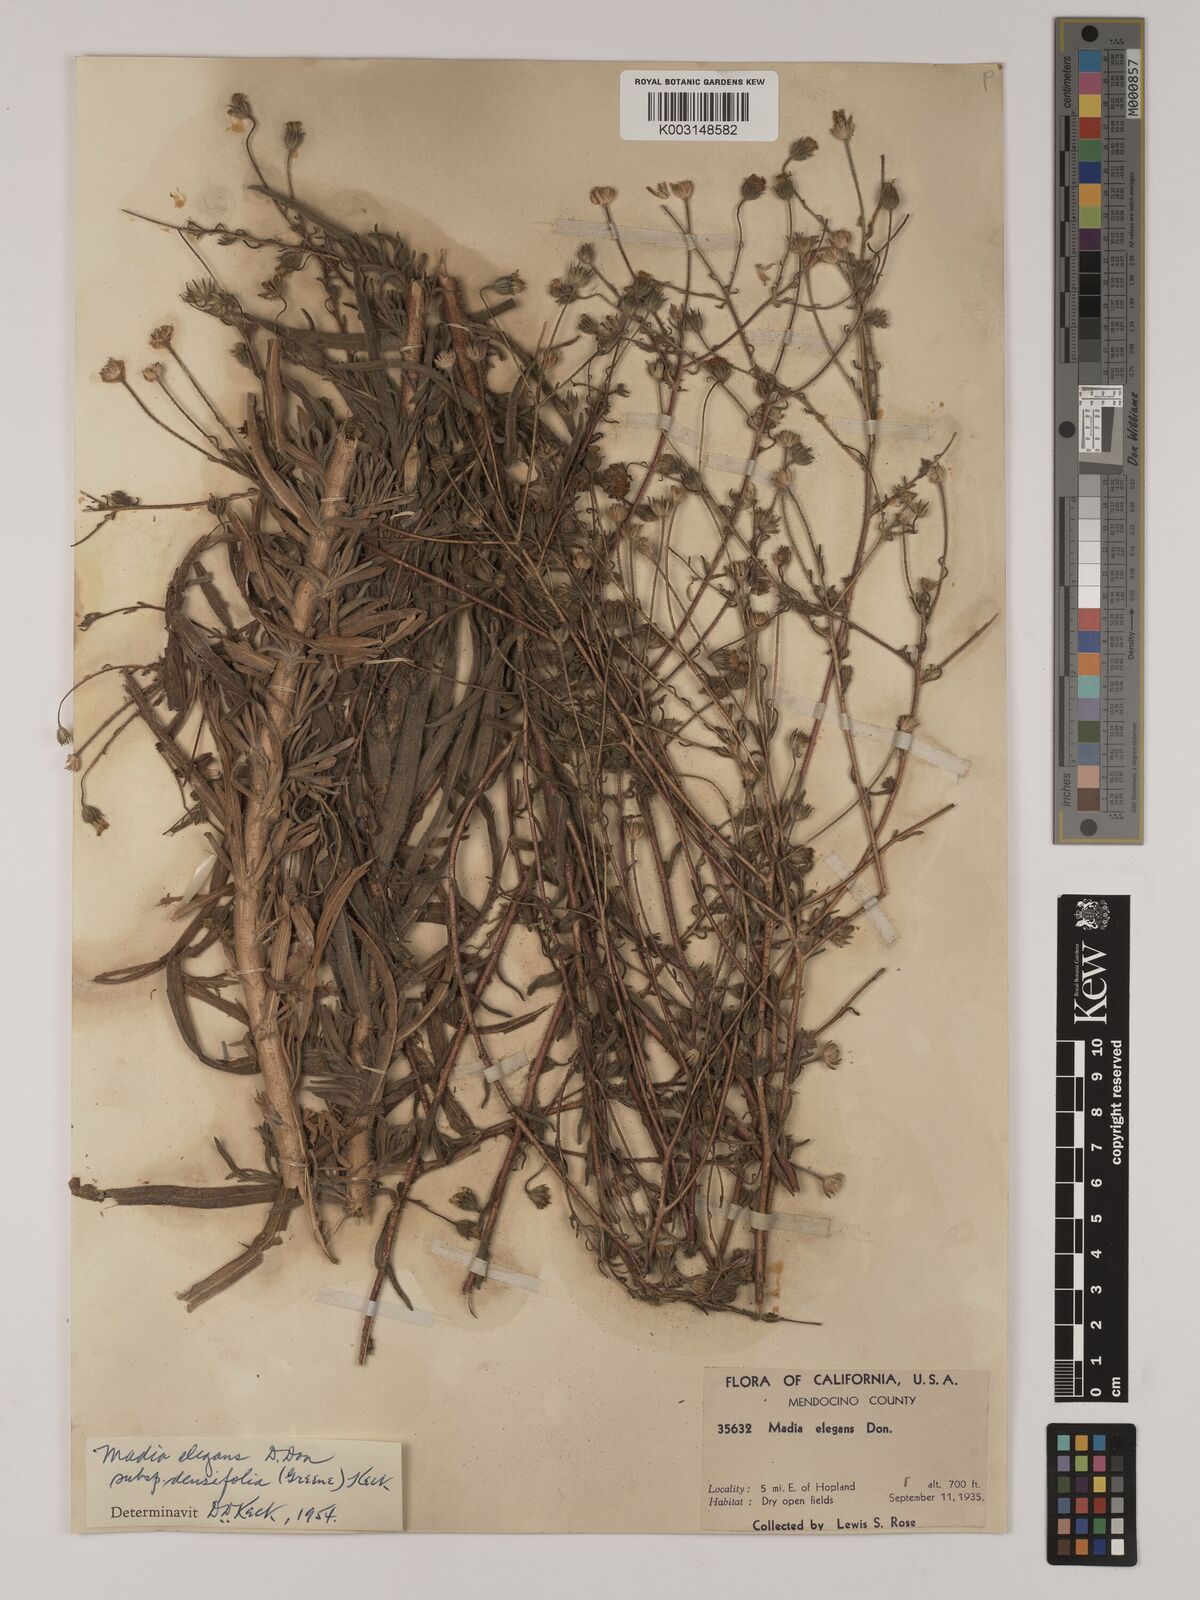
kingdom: Plantae
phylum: Tracheophyta
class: Magnoliopsida
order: Asterales
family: Asteraceae
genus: Madia
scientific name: Madia elegans
